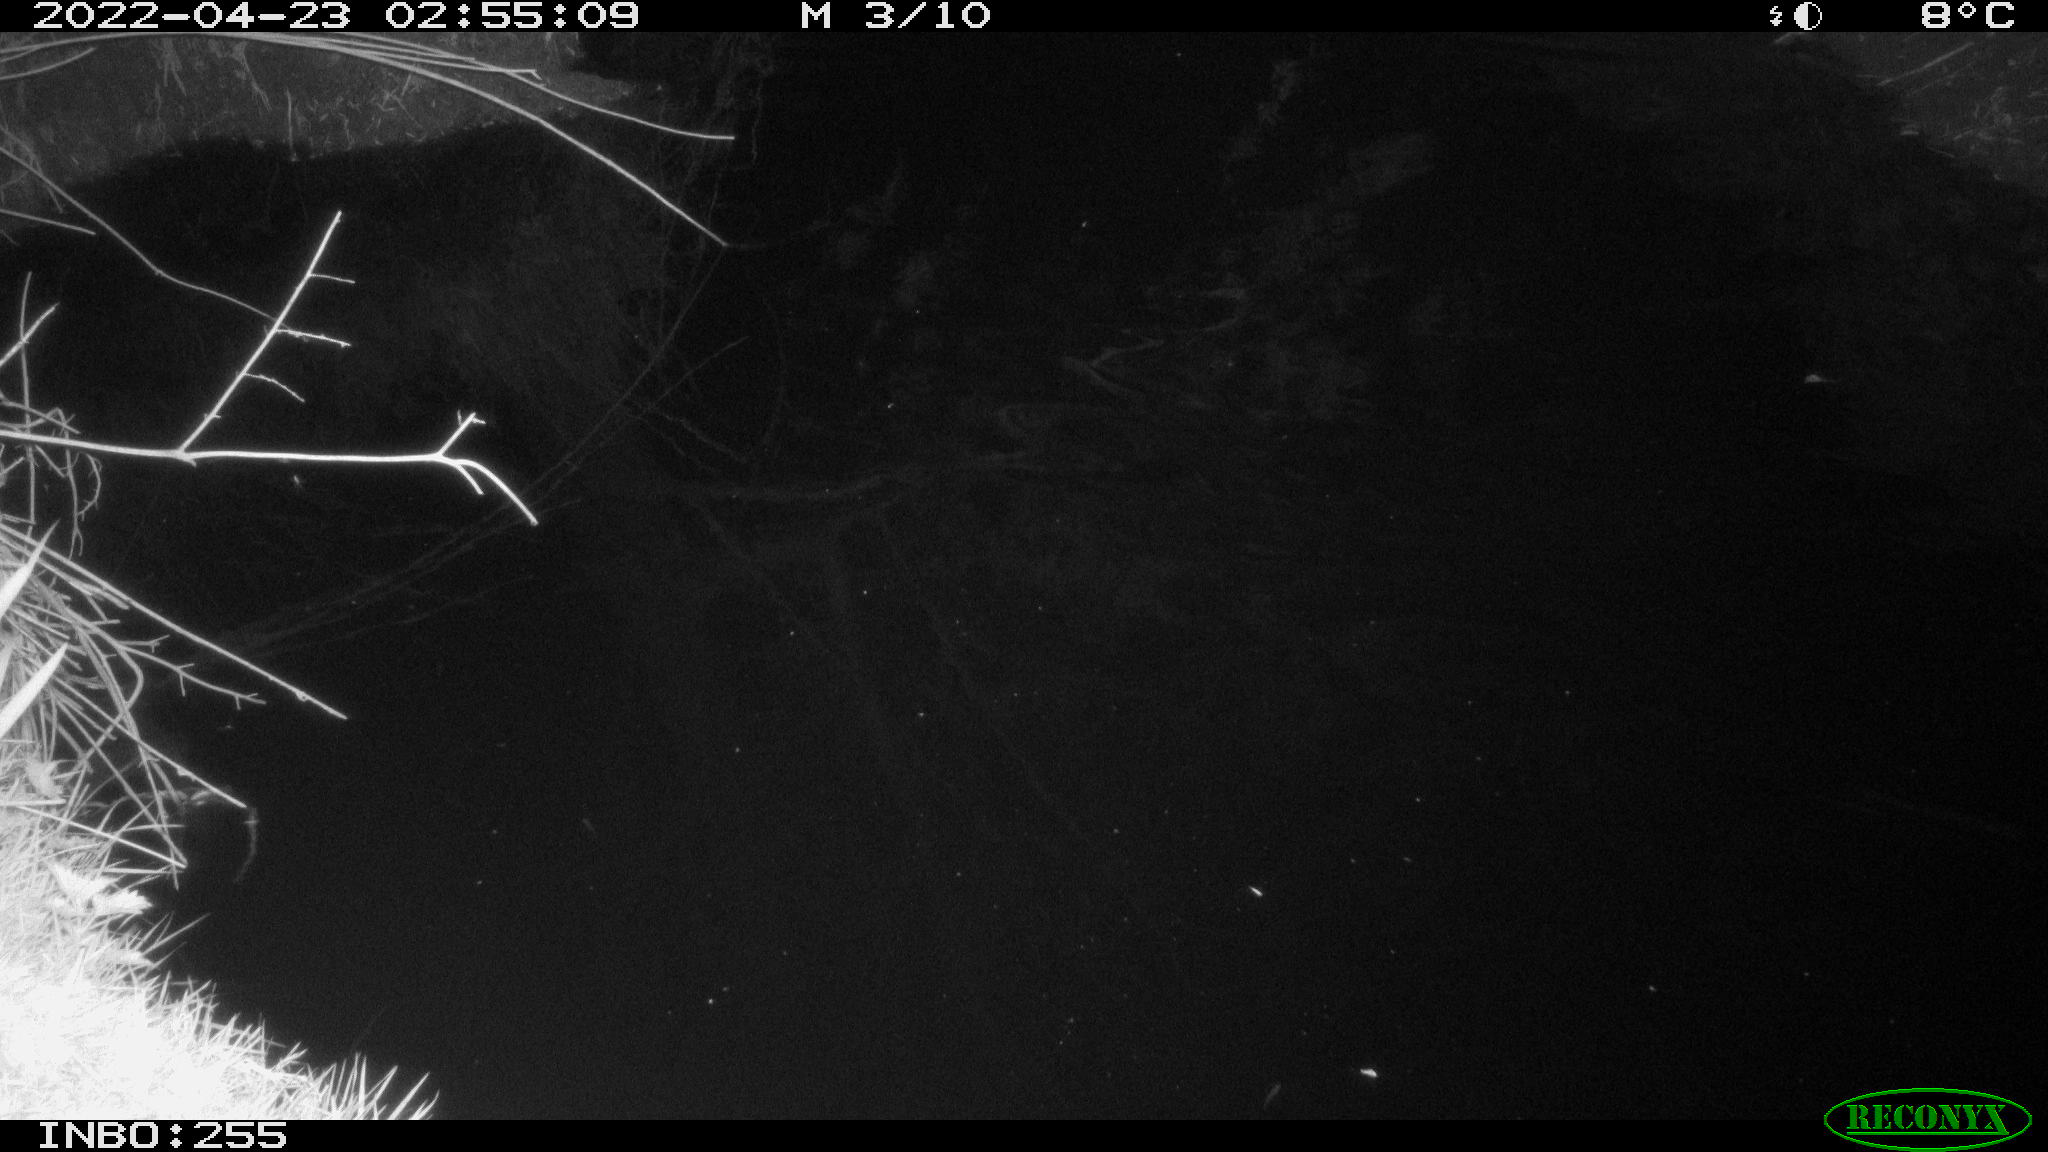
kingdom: Animalia
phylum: Chordata
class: Aves
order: Anseriformes
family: Anatidae
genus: Anas
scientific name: Anas platyrhynchos
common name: Mallard
